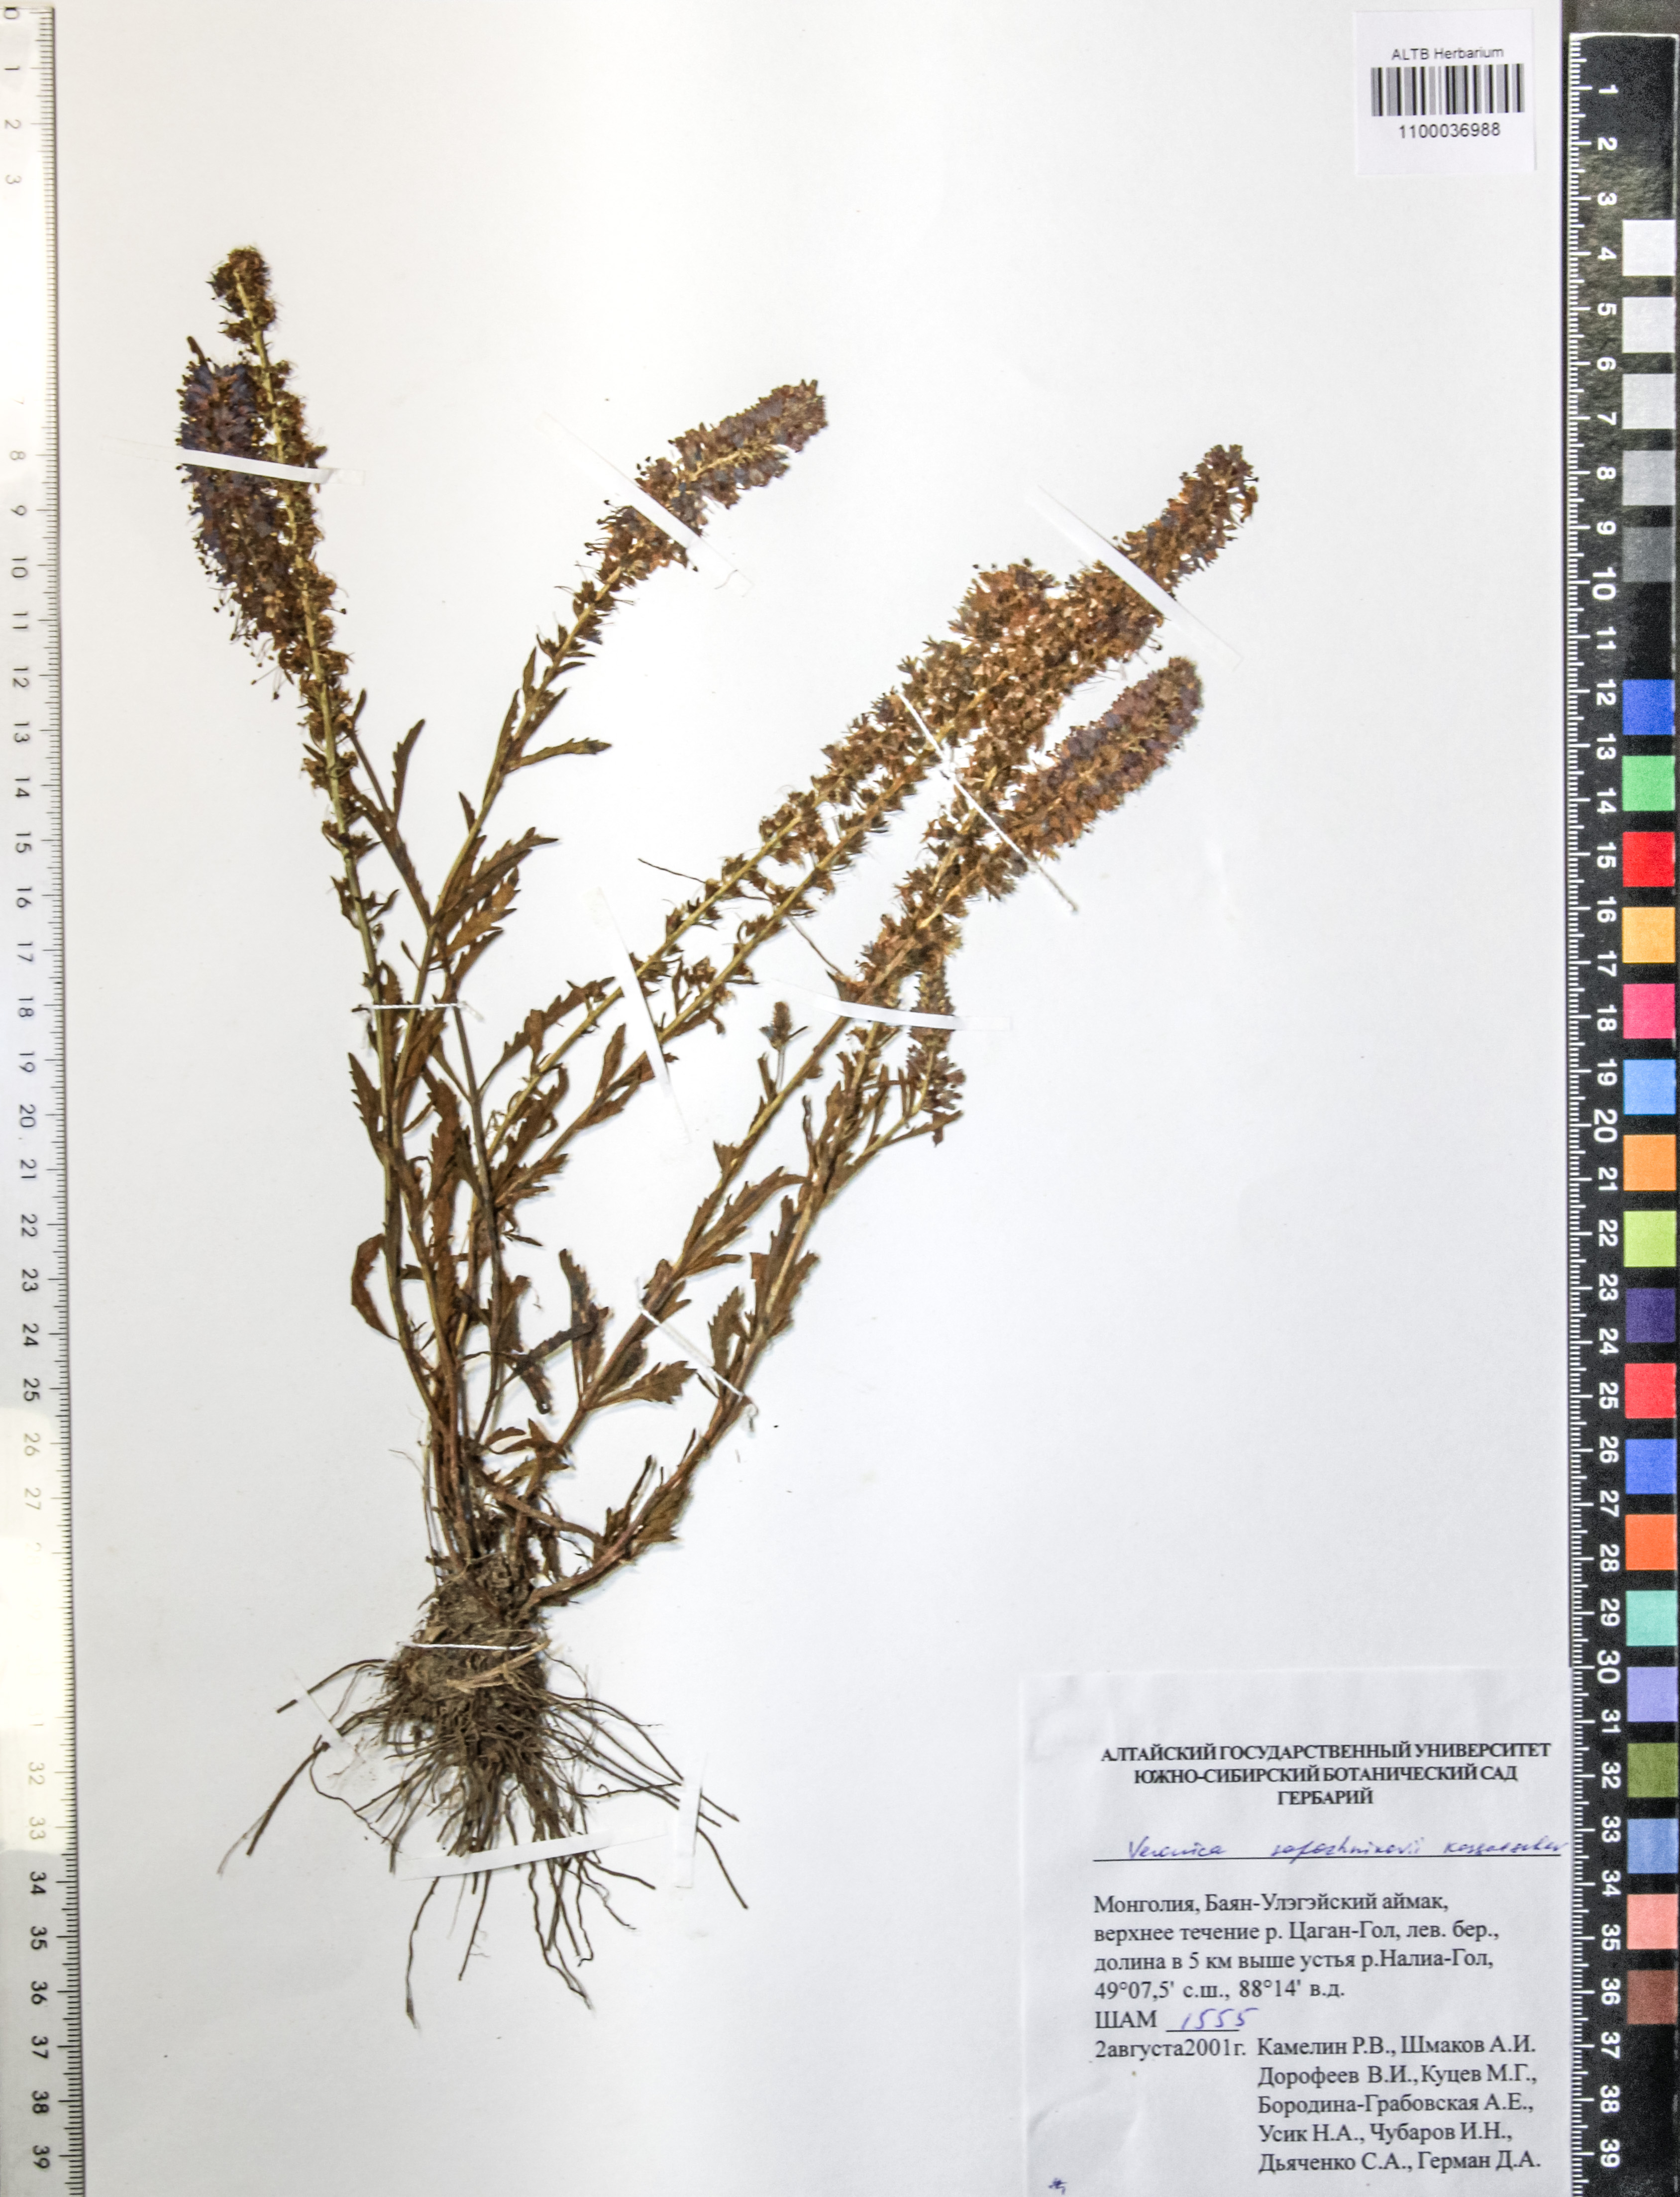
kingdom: Plantae
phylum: Tracheophyta
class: Magnoliopsida
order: Lamiales
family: Plantaginaceae
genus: Veronica
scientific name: Veronica sapozhnikovii
